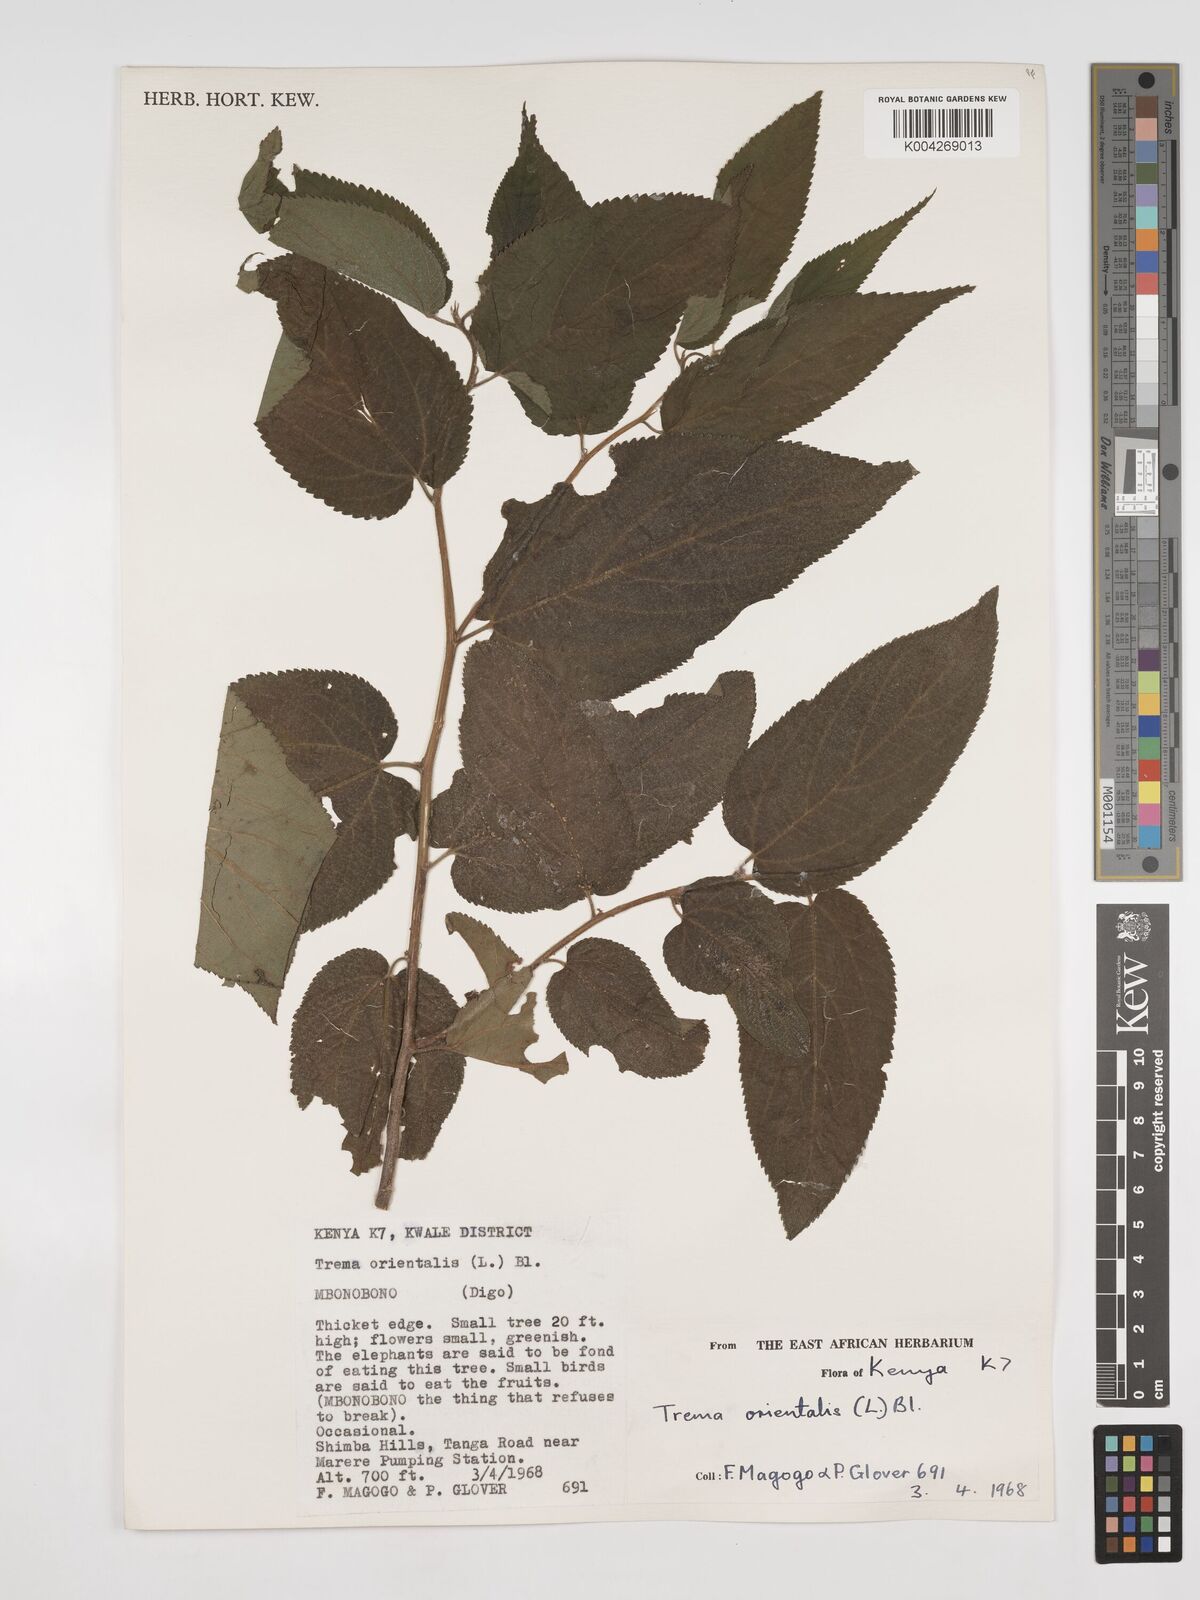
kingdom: Plantae
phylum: Tracheophyta
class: Magnoliopsida
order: Rosales
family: Cannabaceae
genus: Trema
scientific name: Trema orientale
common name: Indian charcoal tree
